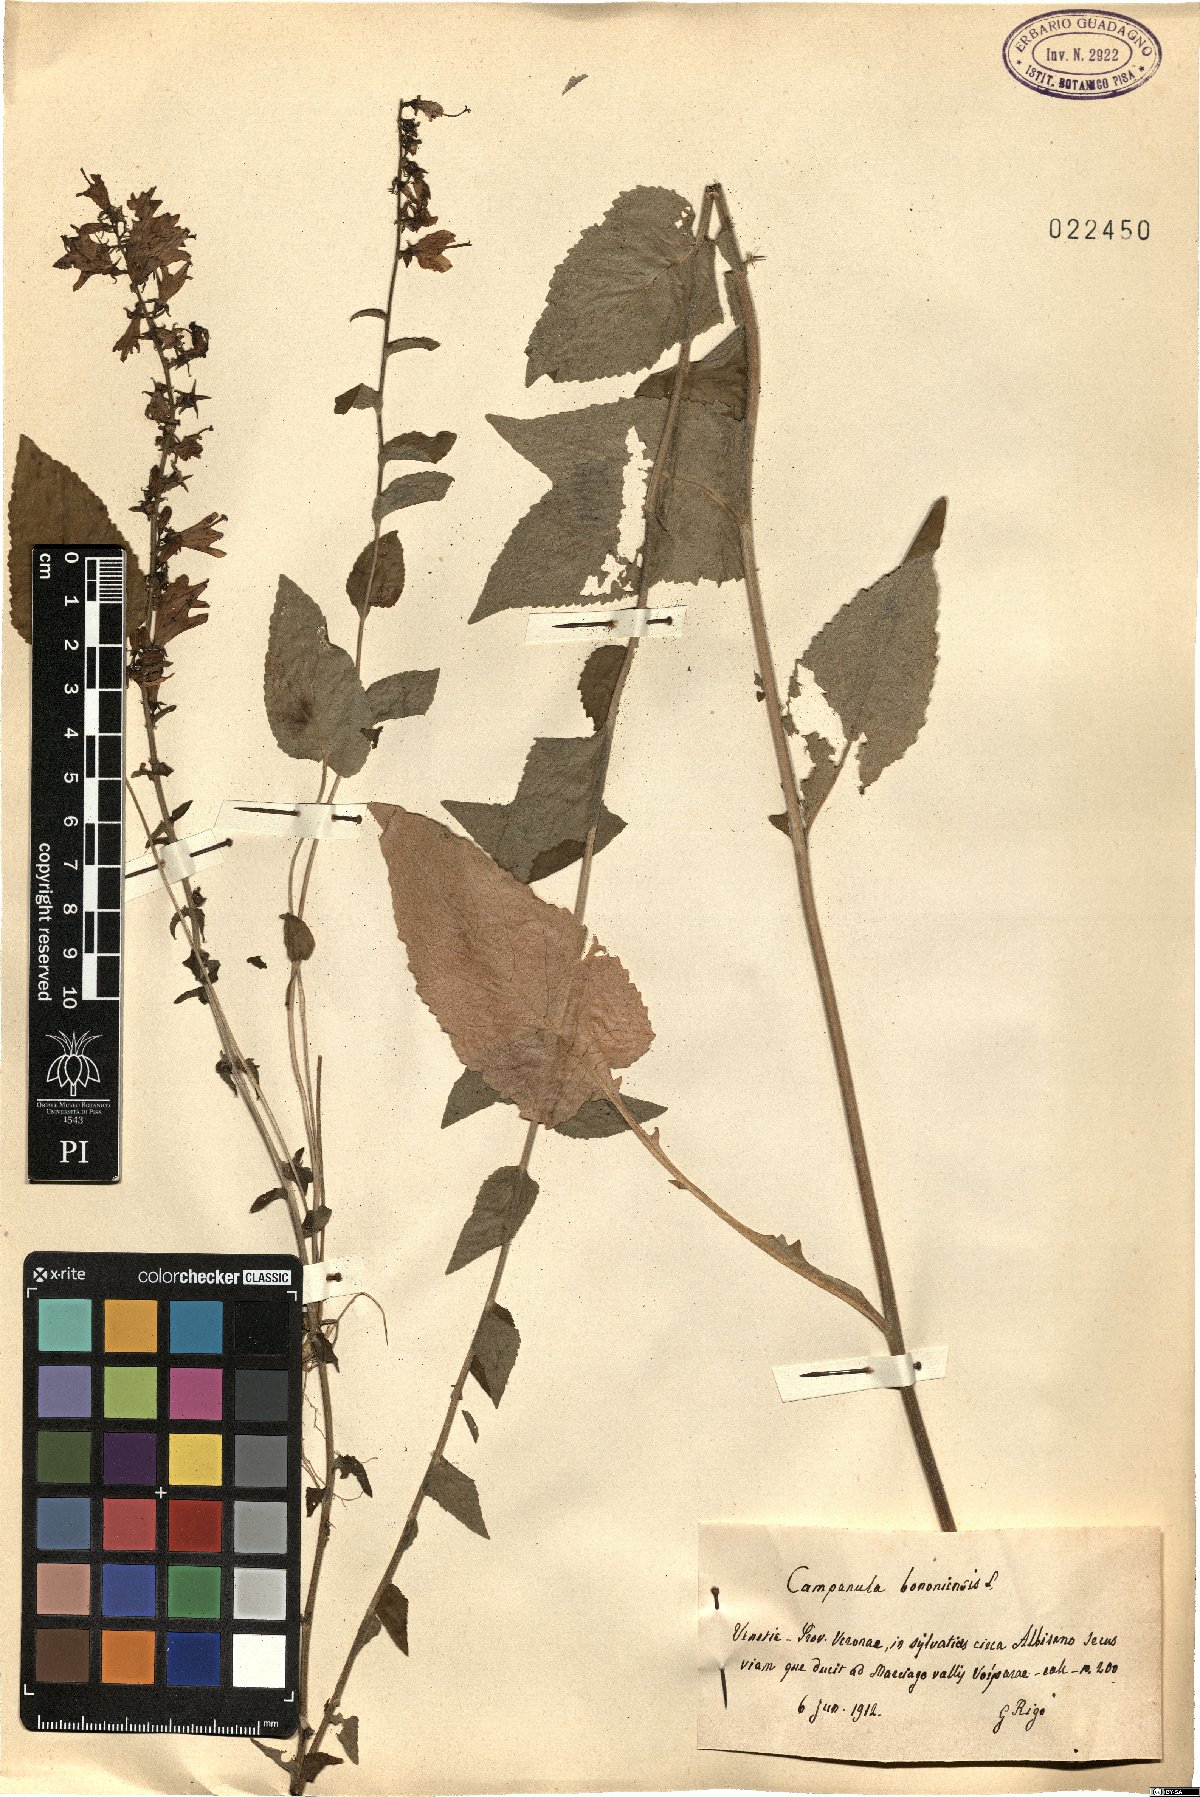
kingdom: Plantae
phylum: Tracheophyta
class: Magnoliopsida
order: Asterales
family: Campanulaceae
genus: Campanula
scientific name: Campanula bononiensis
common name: Pale bellflower
